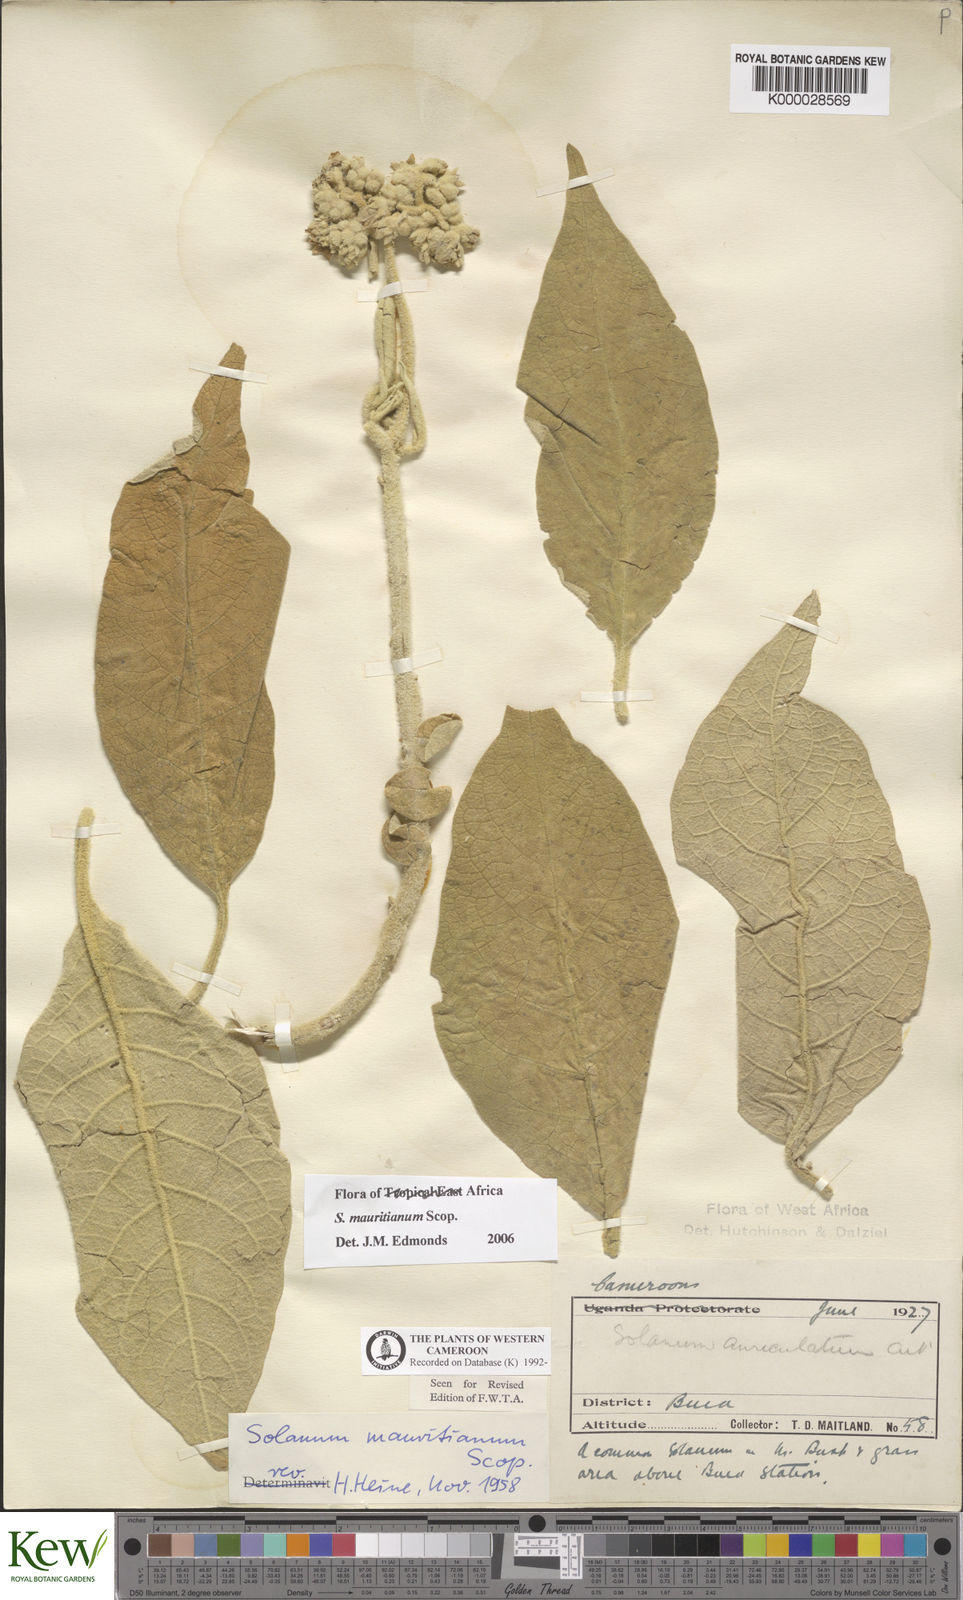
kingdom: Plantae
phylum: Tracheophyta
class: Magnoliopsida
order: Solanales
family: Solanaceae
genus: Solanum
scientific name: Solanum mauritianum
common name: Earleaf nightshade
